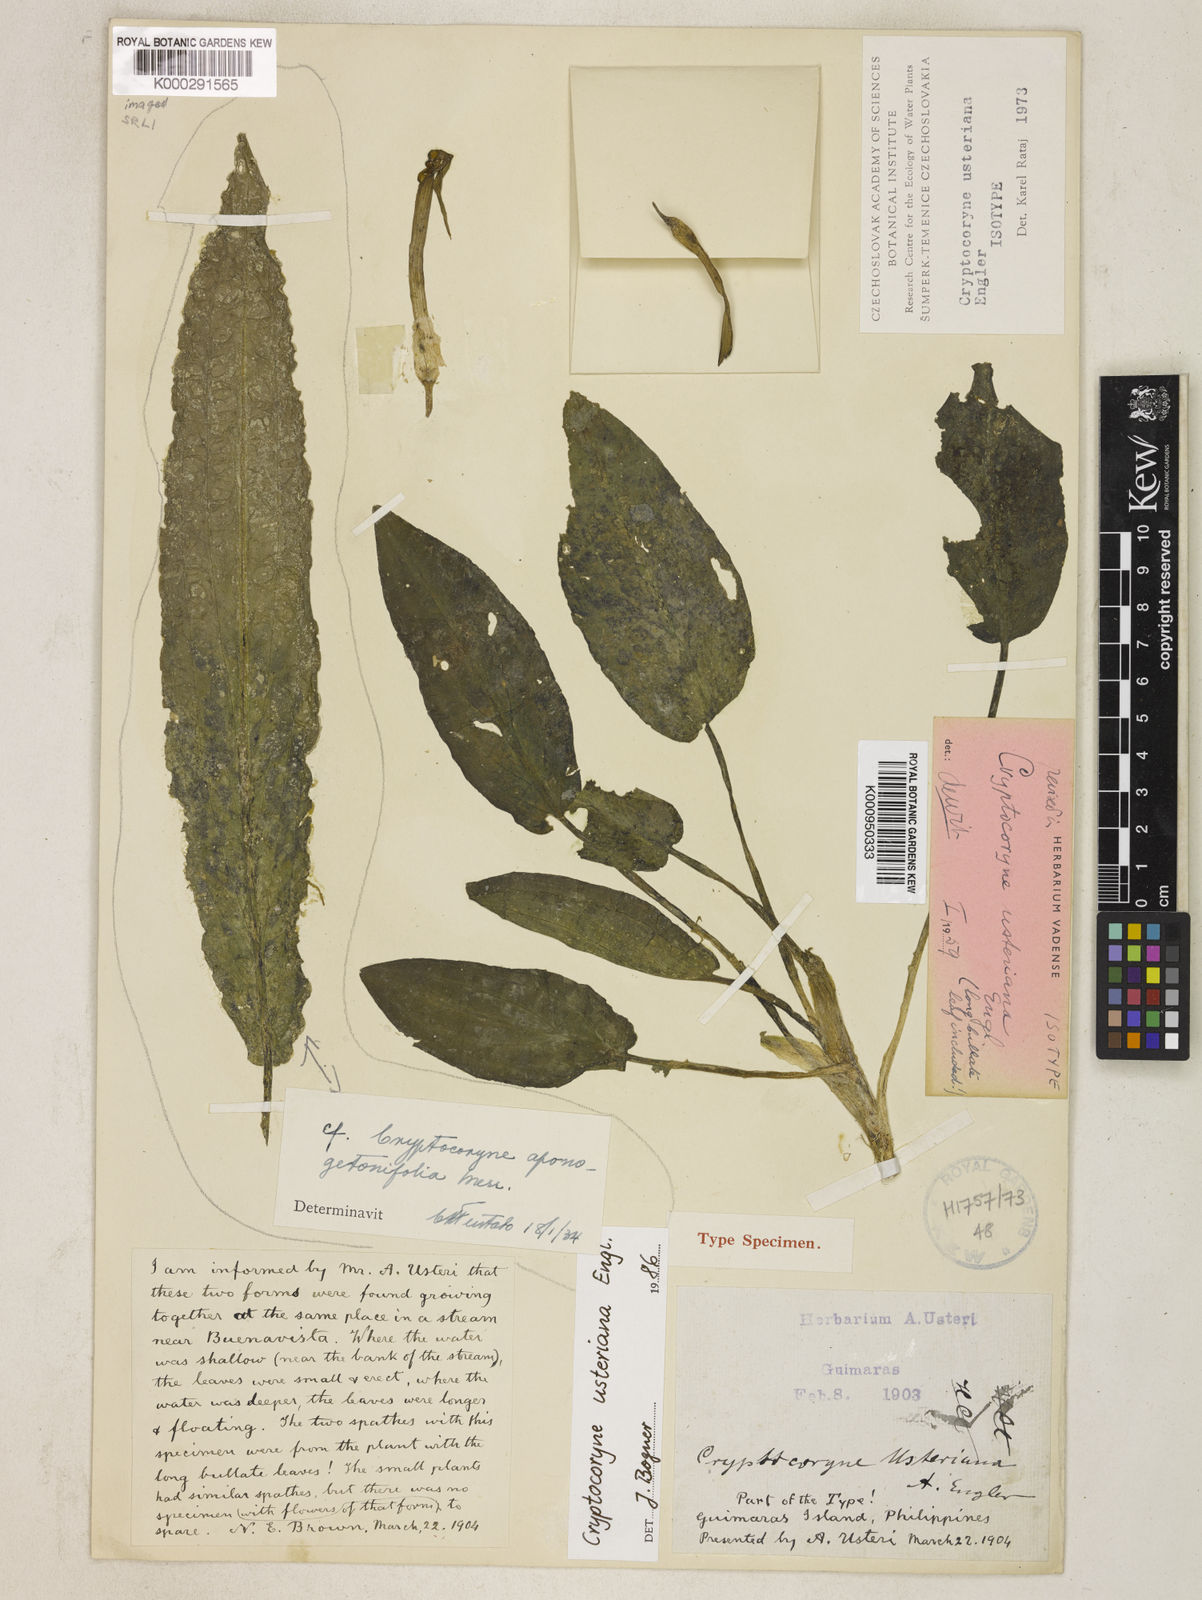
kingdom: Plantae
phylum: Tracheophyta
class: Liliopsida
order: Alismatales
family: Araceae
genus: Cryptocoryne
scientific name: Cryptocoryne usteriana
